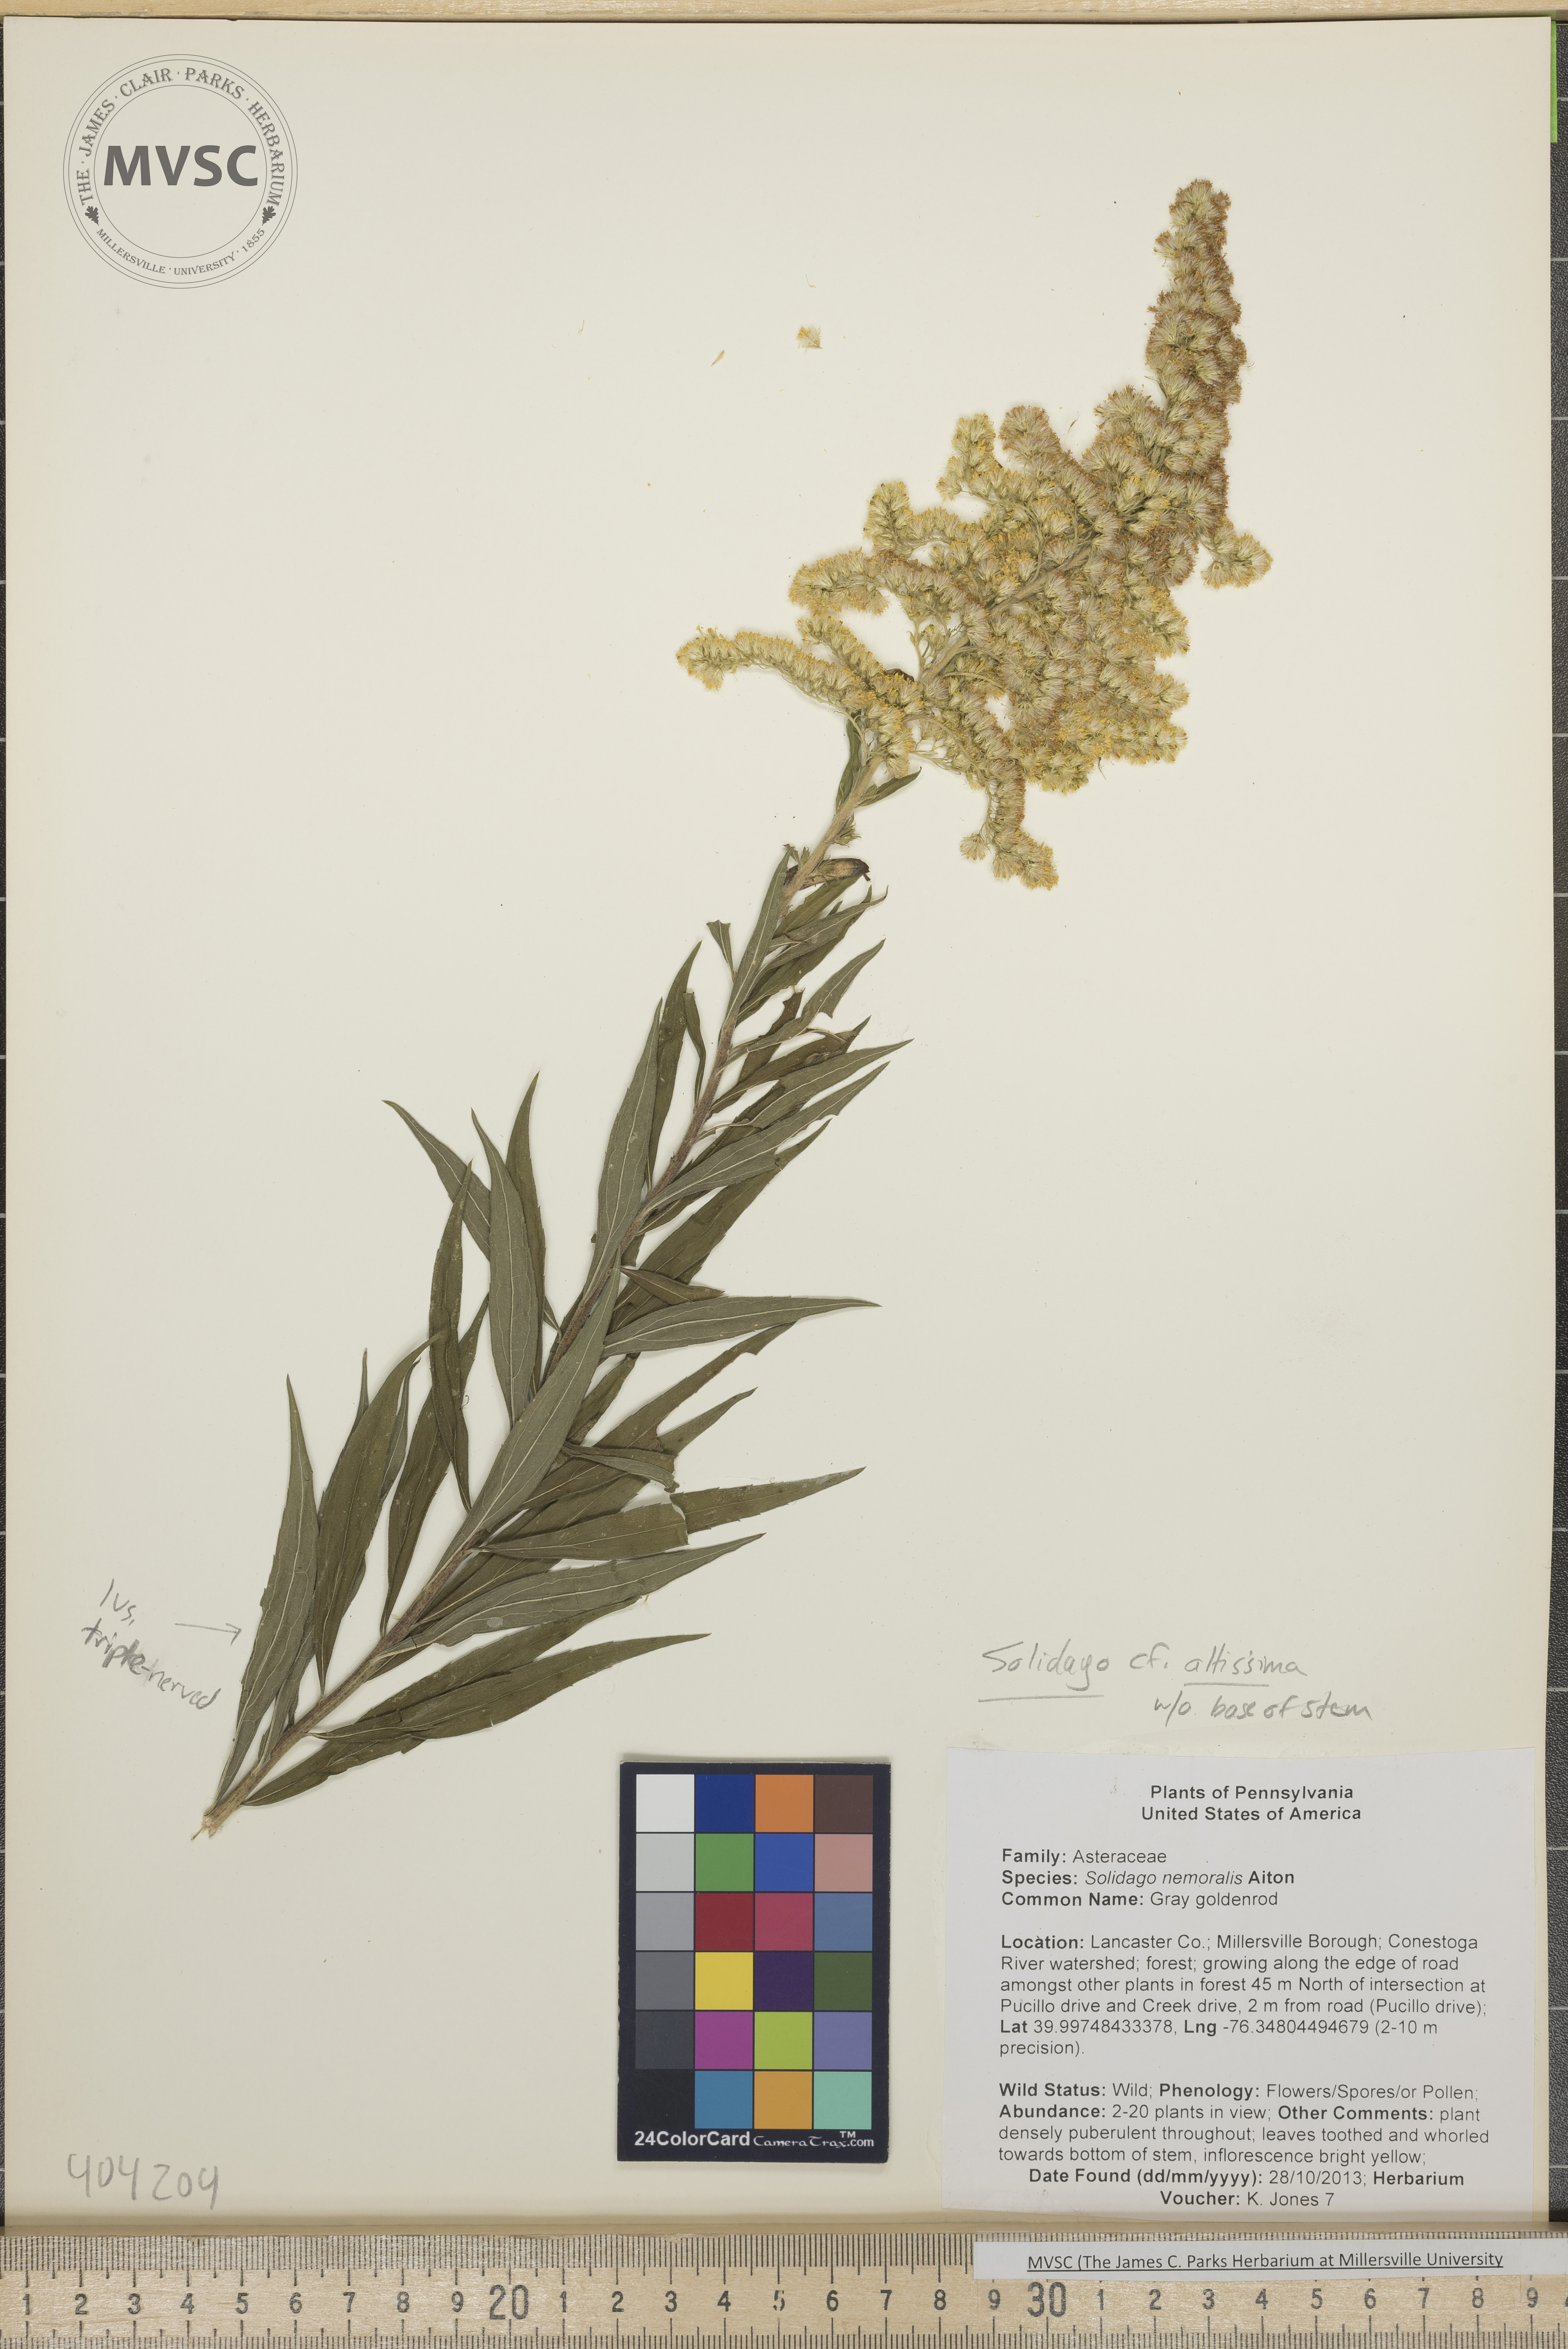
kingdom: Plantae
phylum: Tracheophyta
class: Magnoliopsida
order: Asterales
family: Asteraceae
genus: Solidago
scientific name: Solidago altissima
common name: Late Goldenrod
